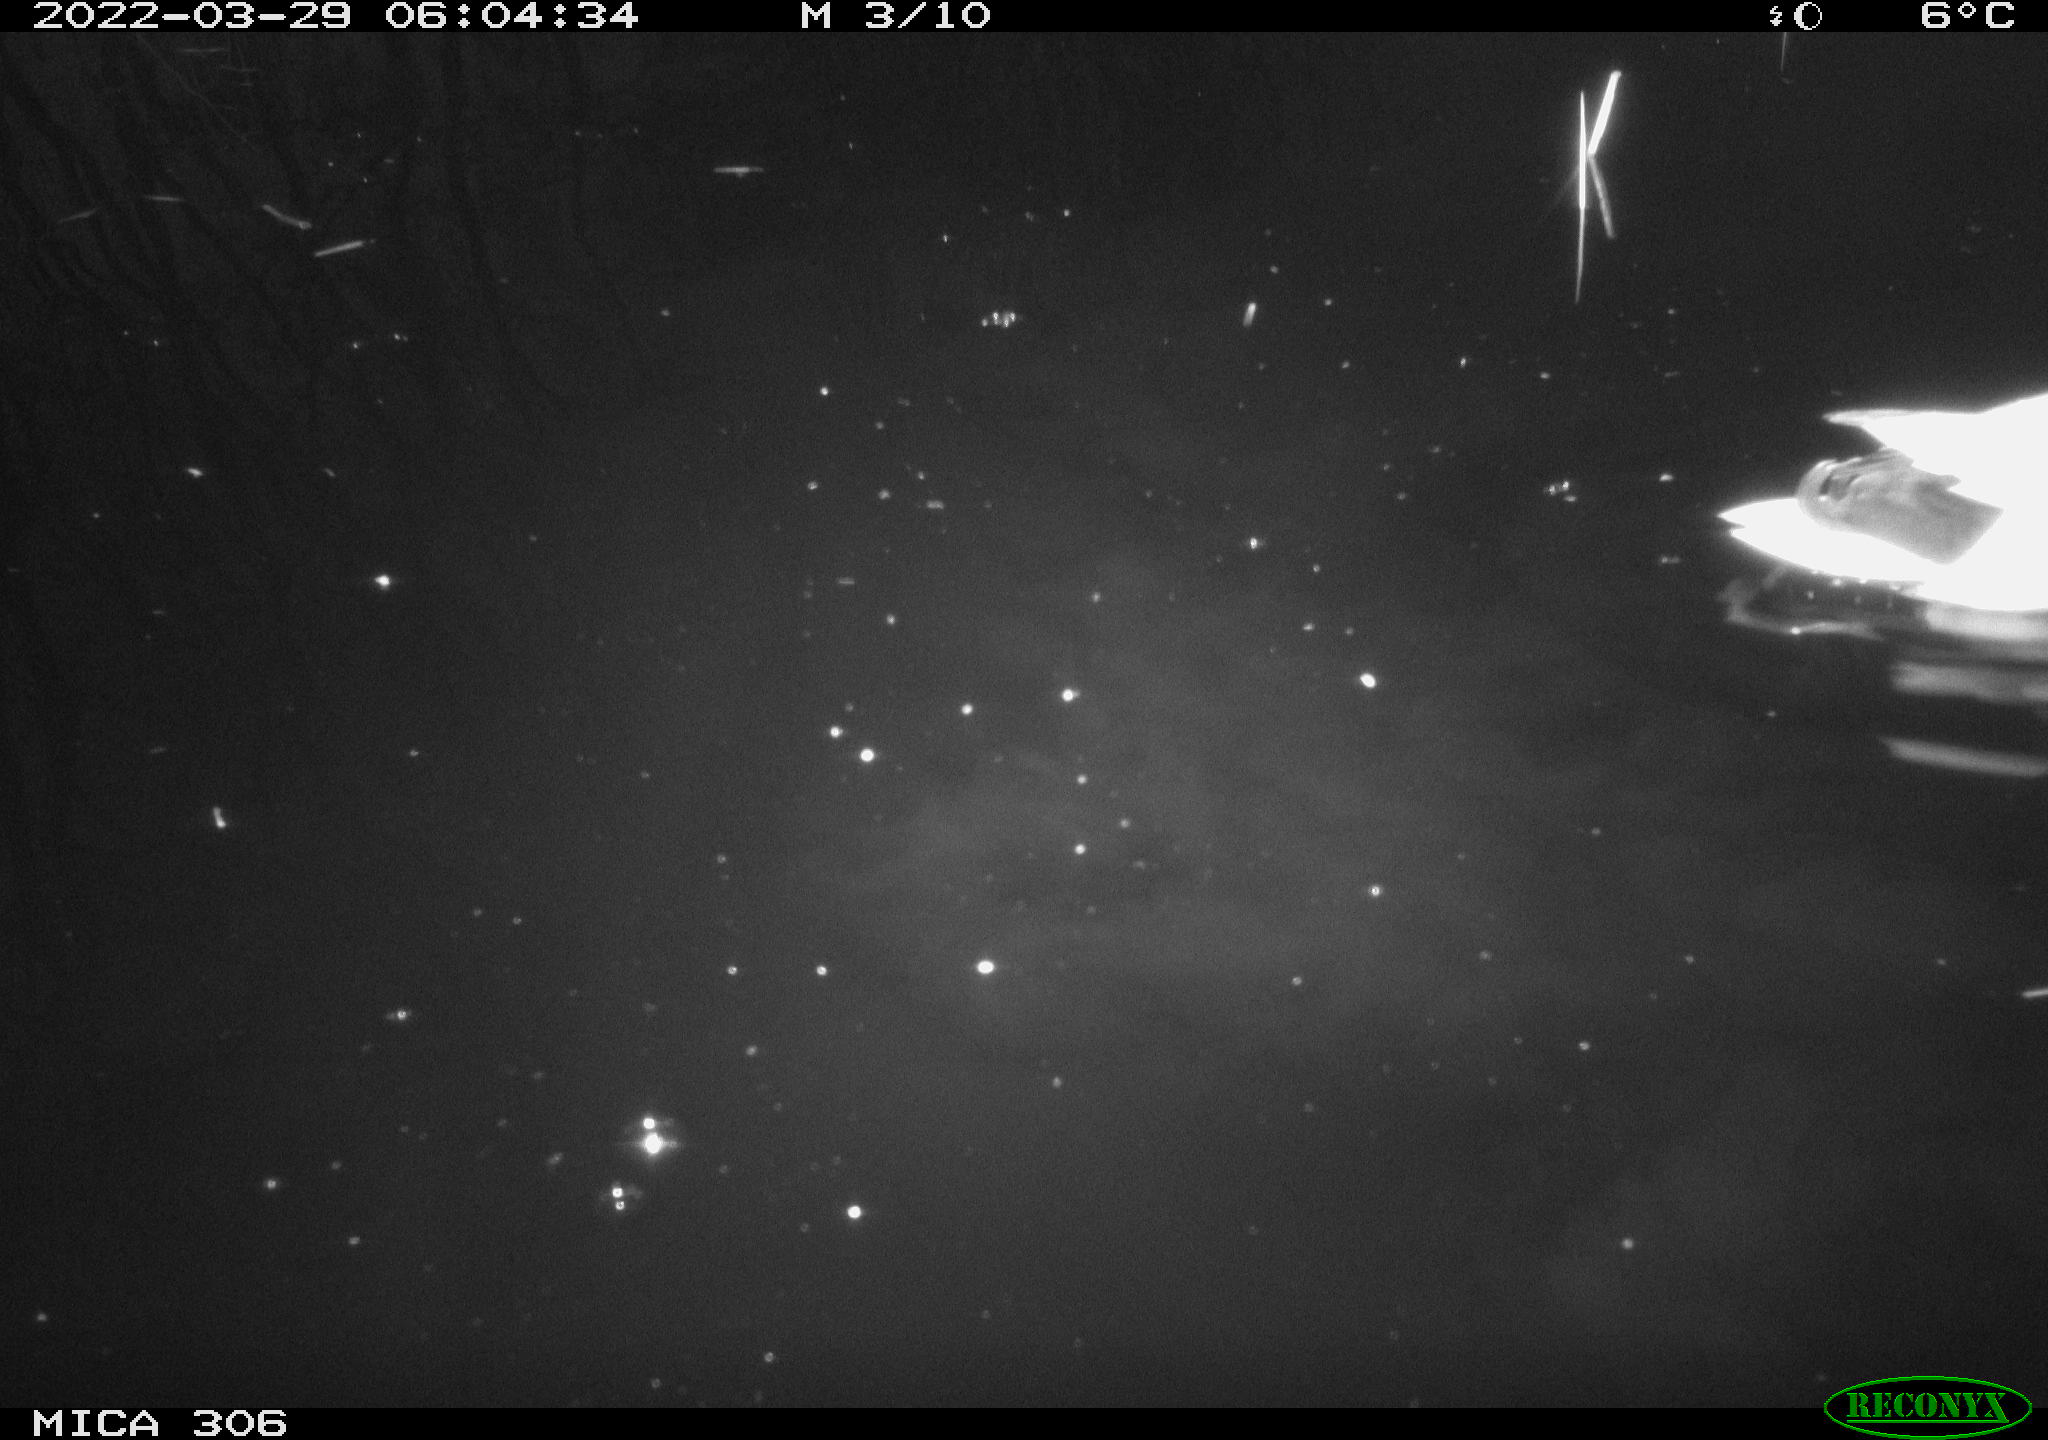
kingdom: Animalia
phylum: Chordata
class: Aves
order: Anseriformes
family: Anatidae
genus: Anas
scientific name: Anas platyrhynchos
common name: Mallard
